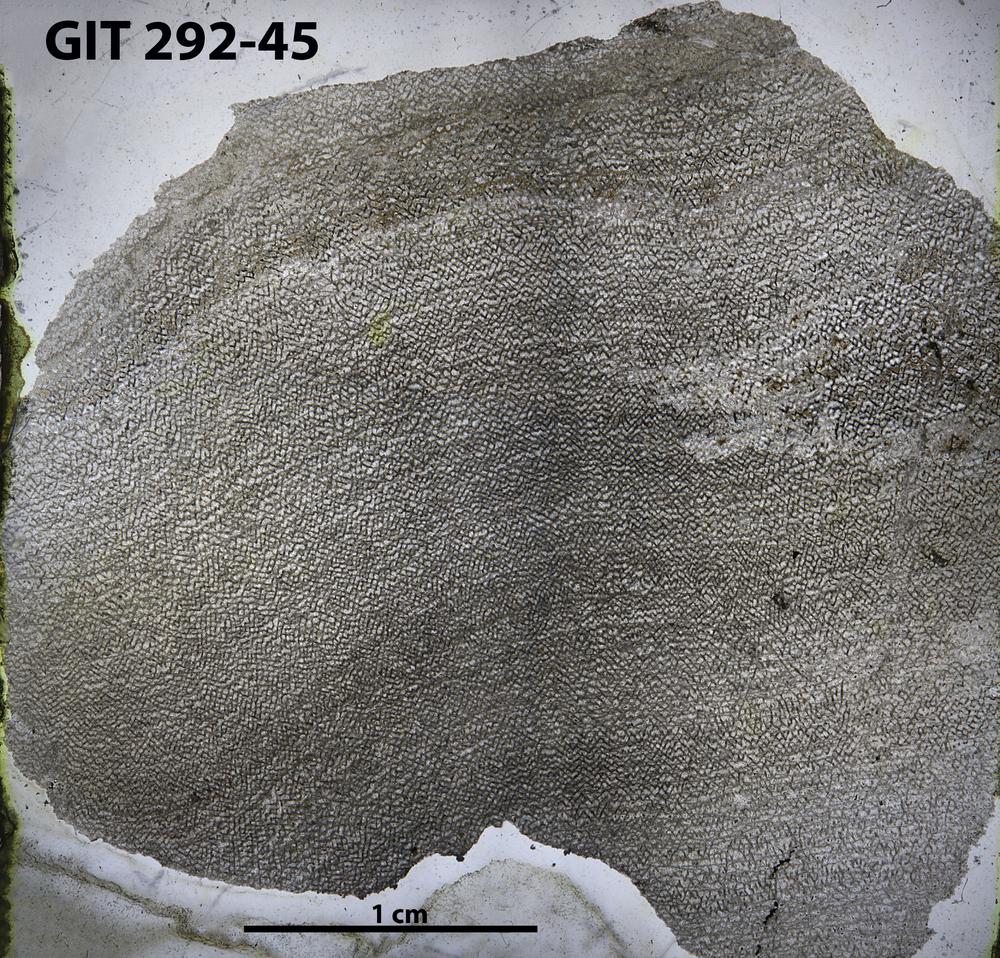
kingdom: Animalia
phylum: Porifera
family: Ecclimadictyidae
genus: Ecclimadictyon
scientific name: Ecclimadictyon
